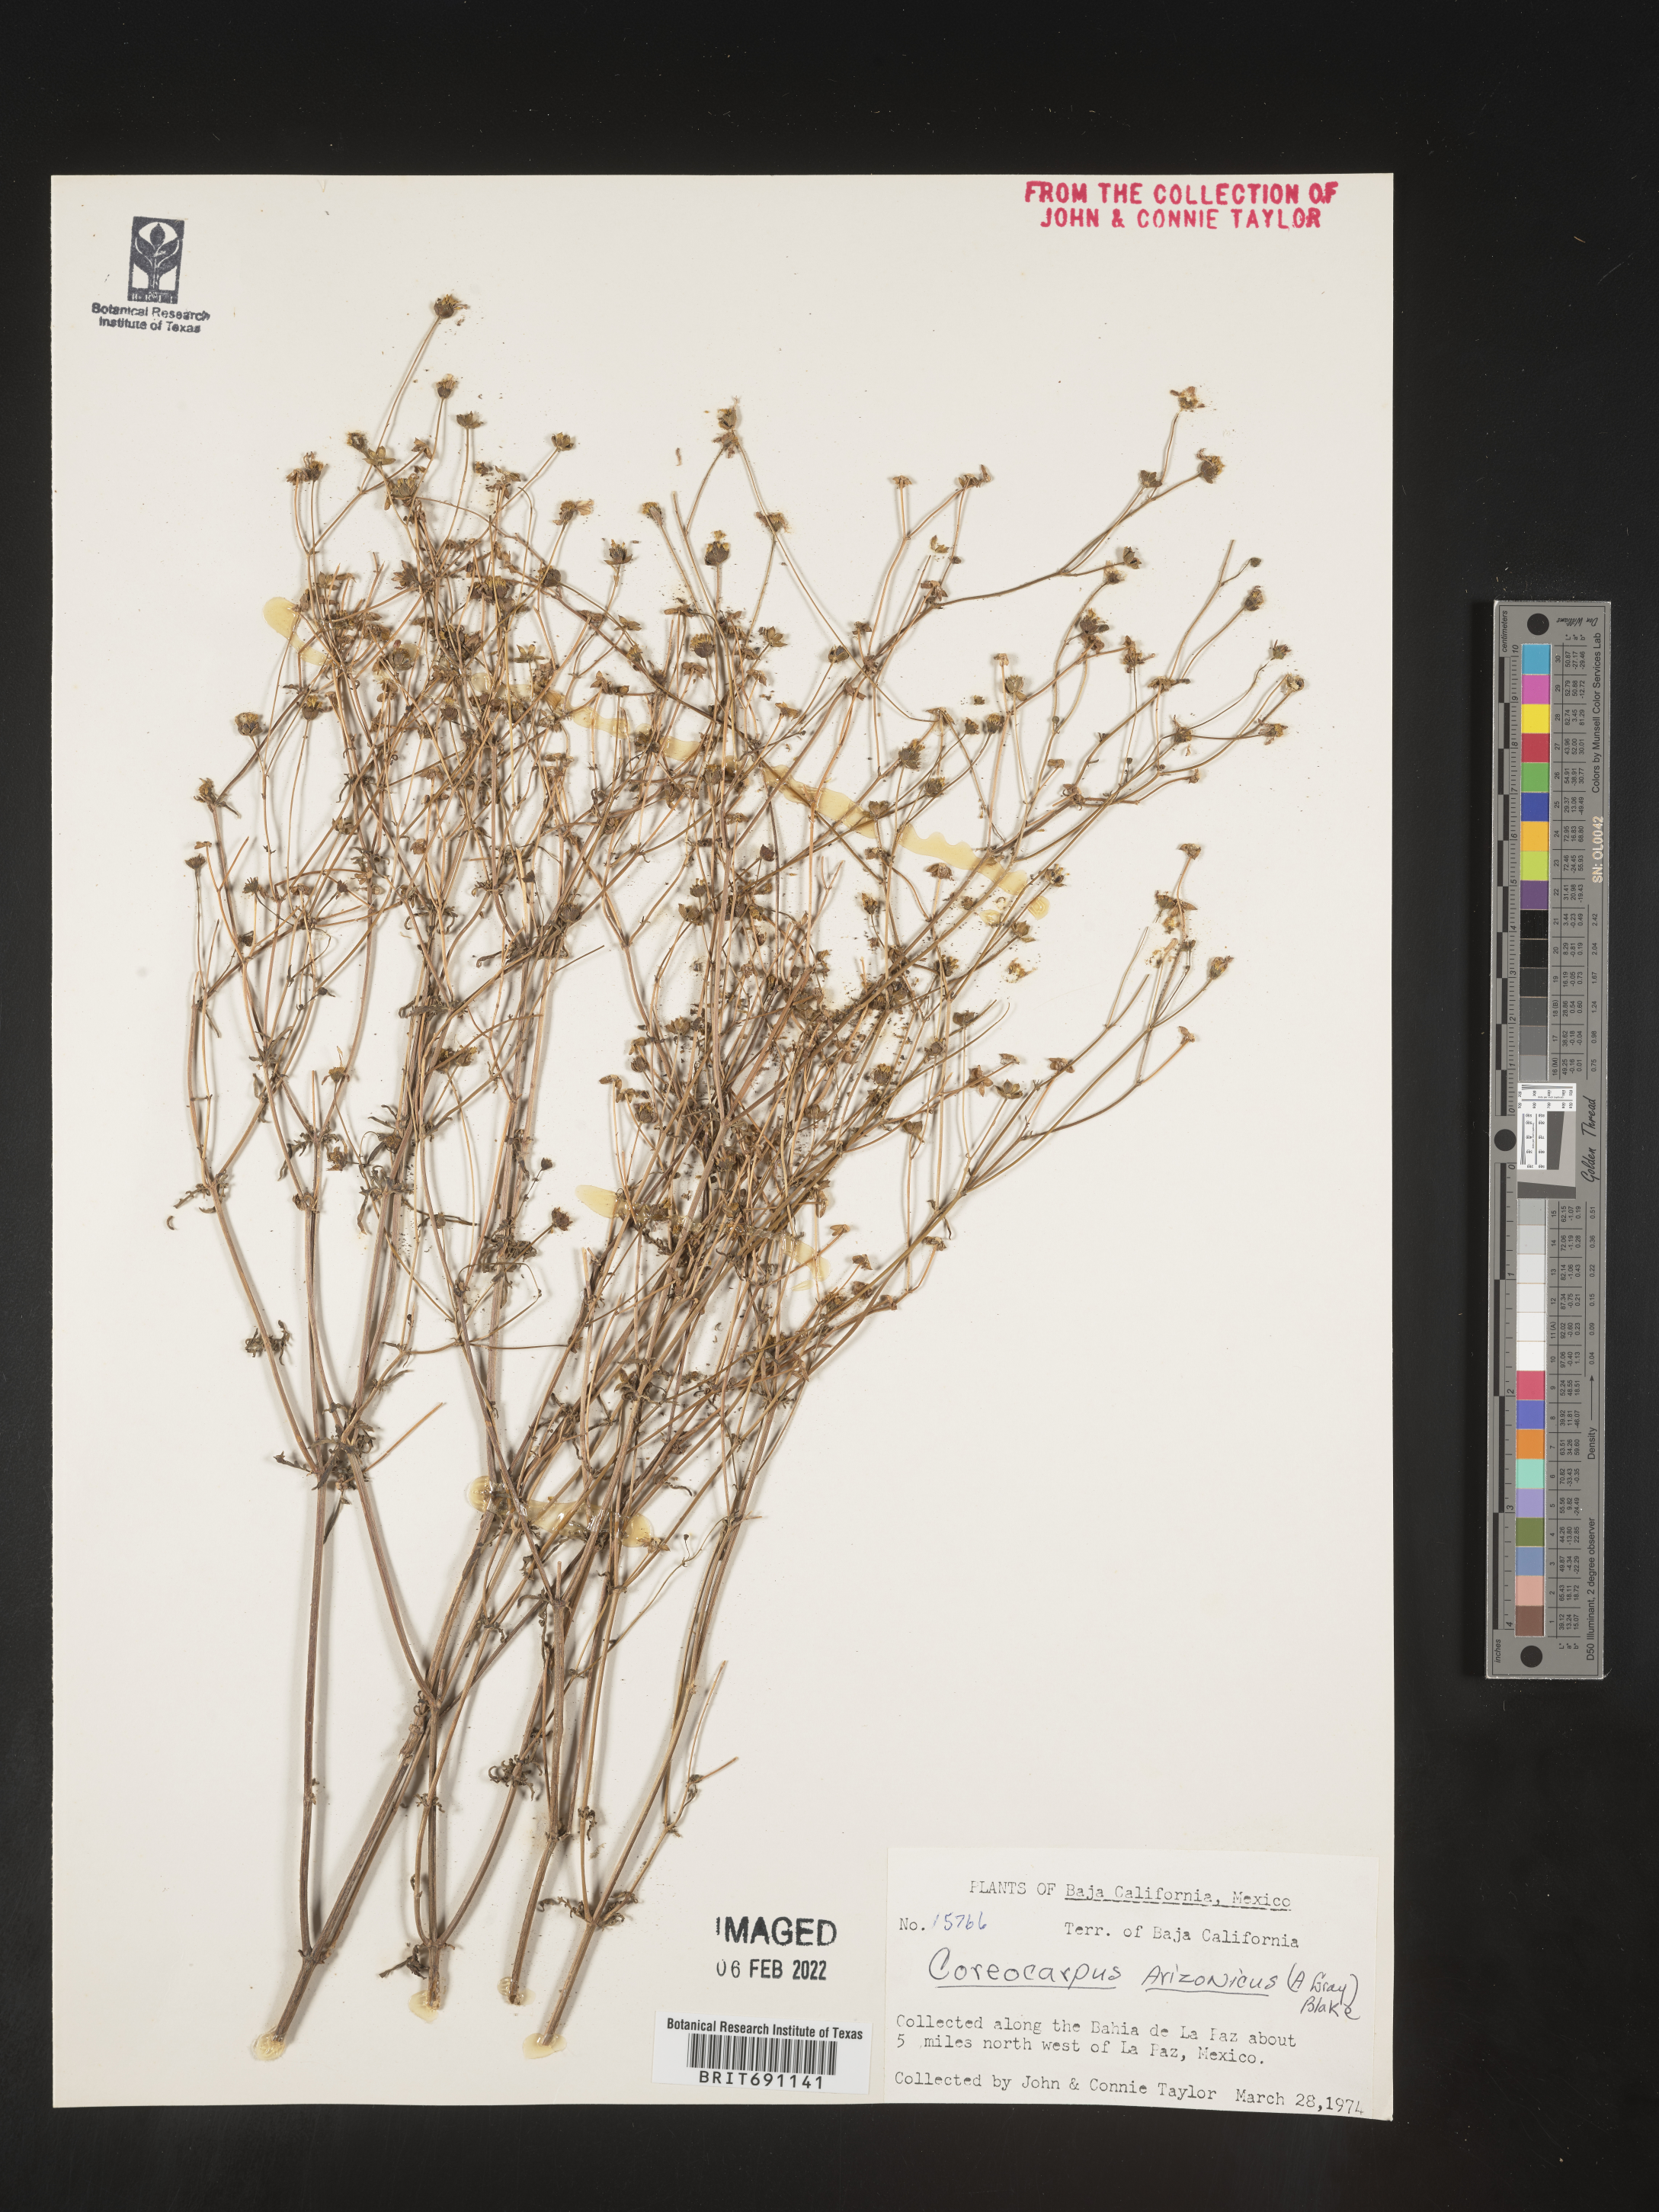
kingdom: Plantae
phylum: Tracheophyta
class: Magnoliopsida
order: Asterales
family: Asteraceae
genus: Coreocarpus
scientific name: Coreocarpus
